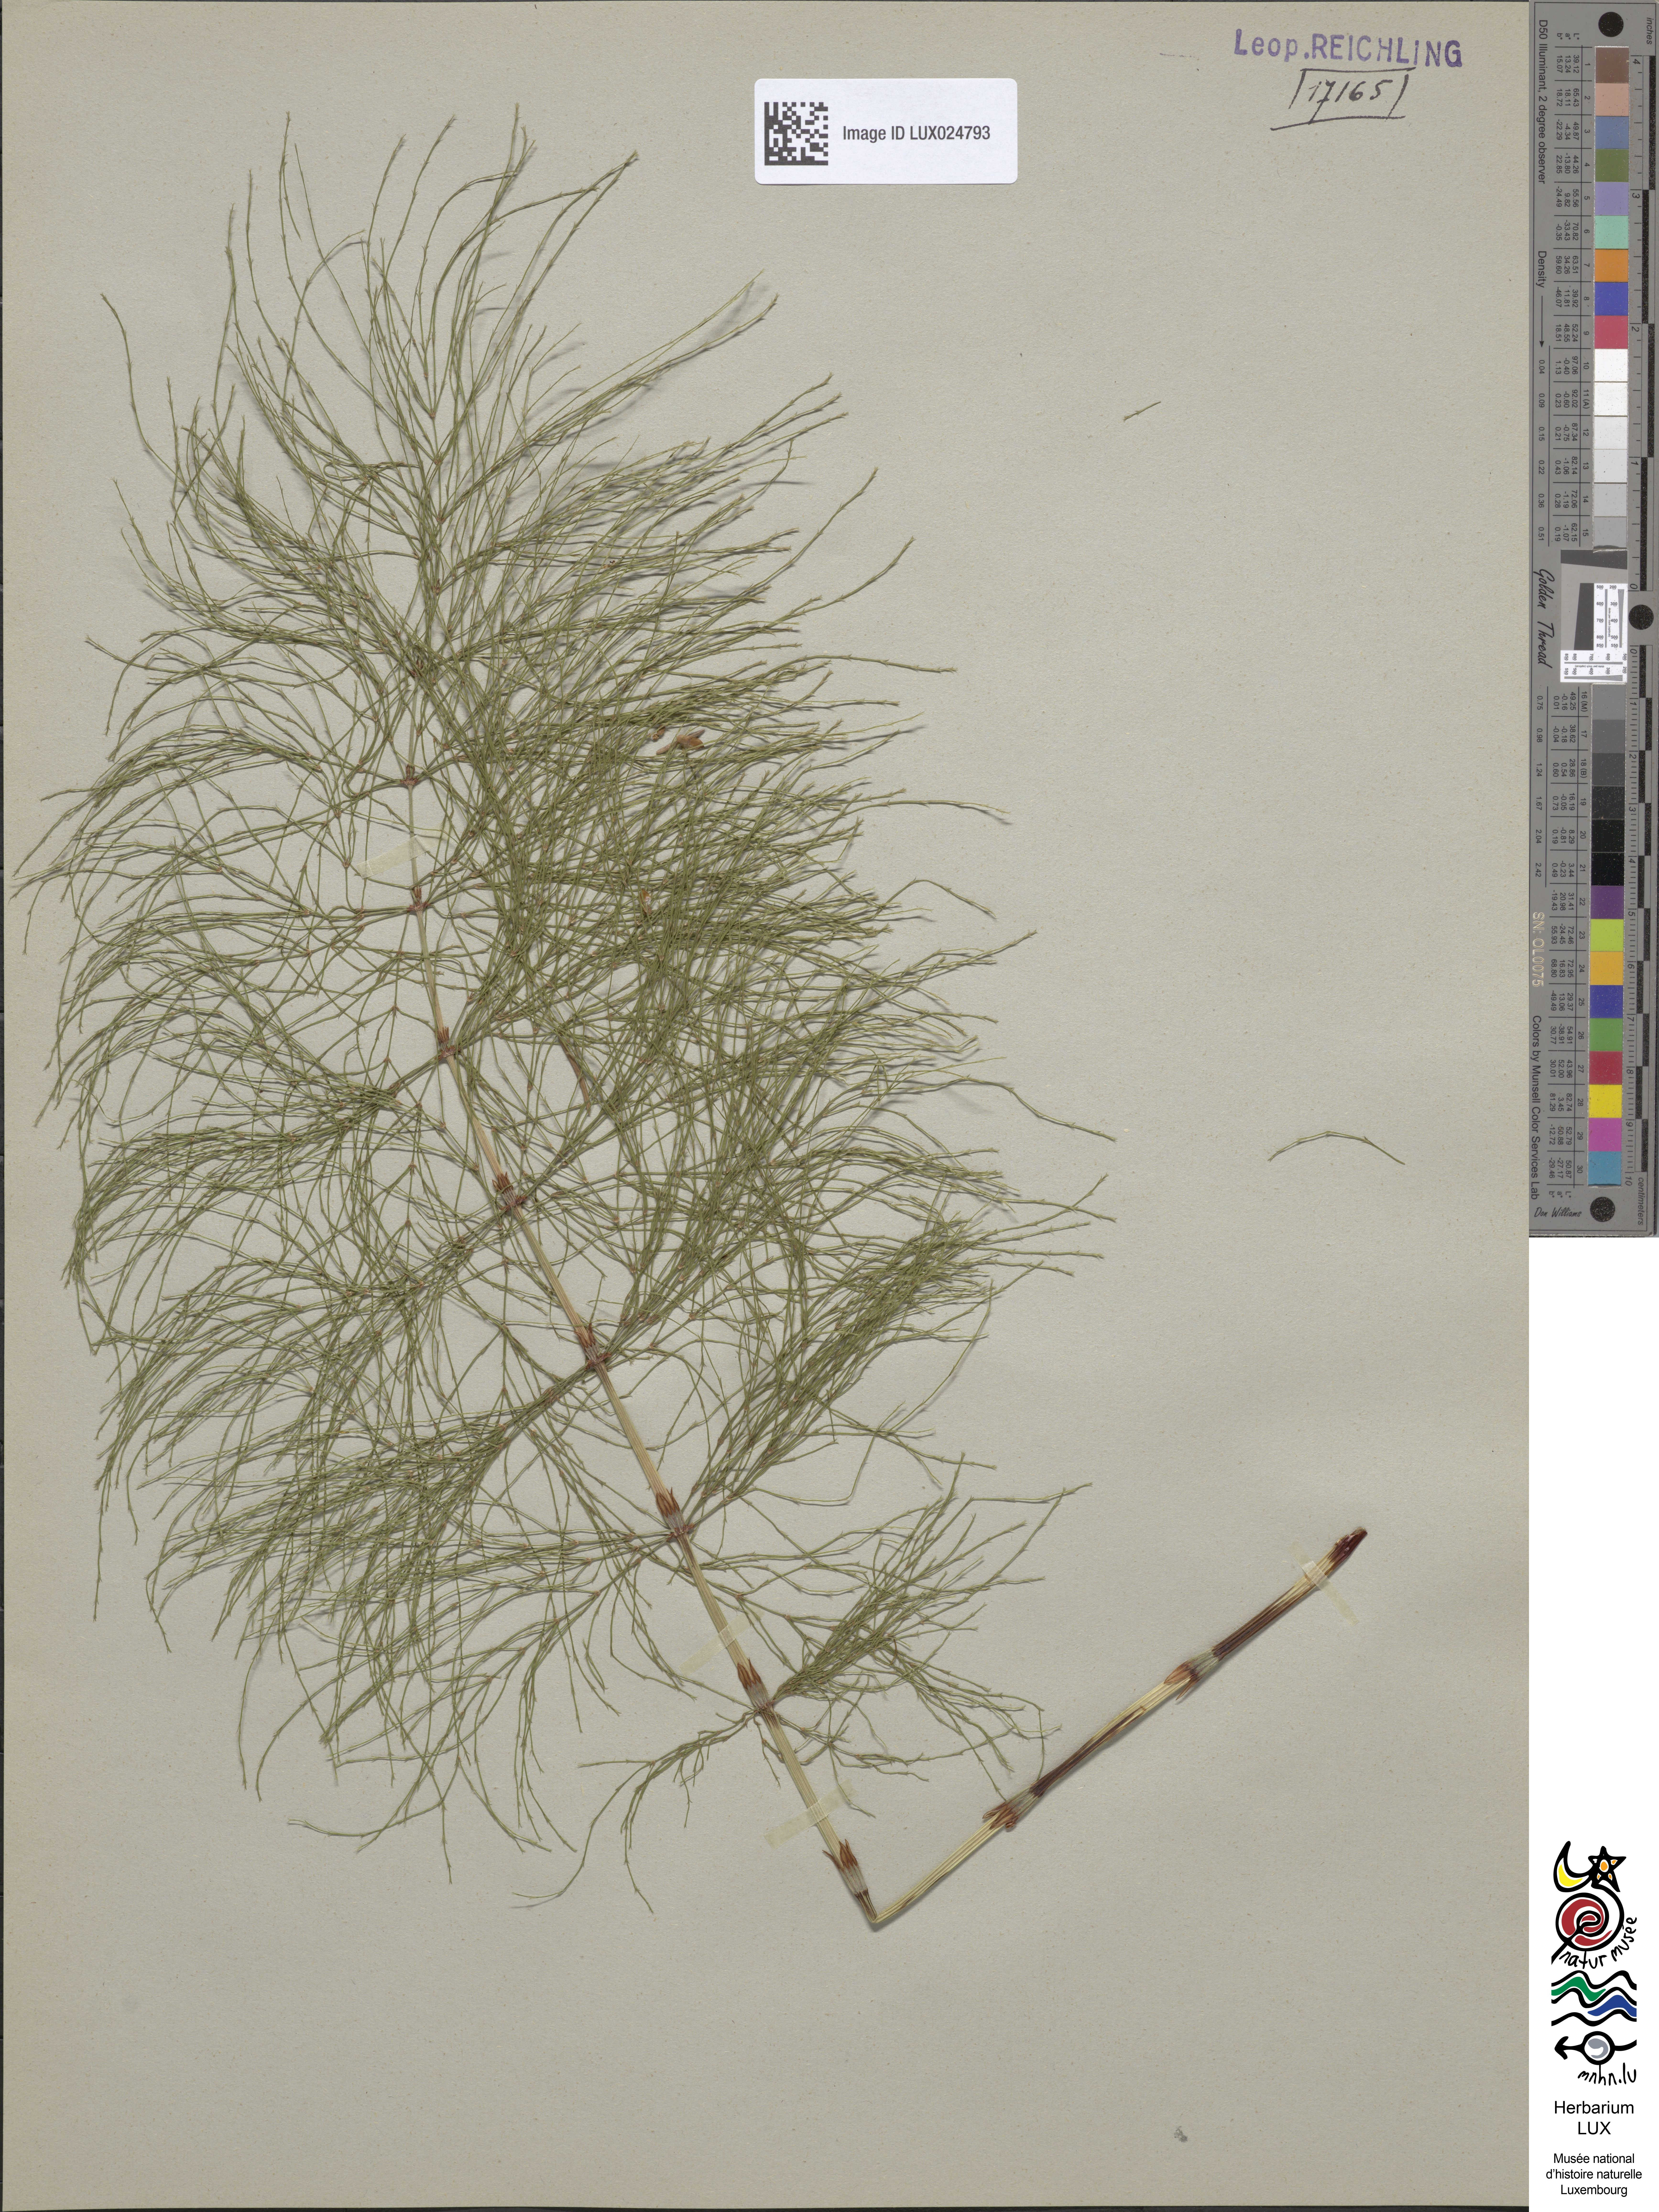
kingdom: Plantae
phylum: Tracheophyta
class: Polypodiopsida
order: Equisetales
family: Equisetaceae
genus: Equisetum
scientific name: Equisetum sylvaticum
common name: Wood horsetail
